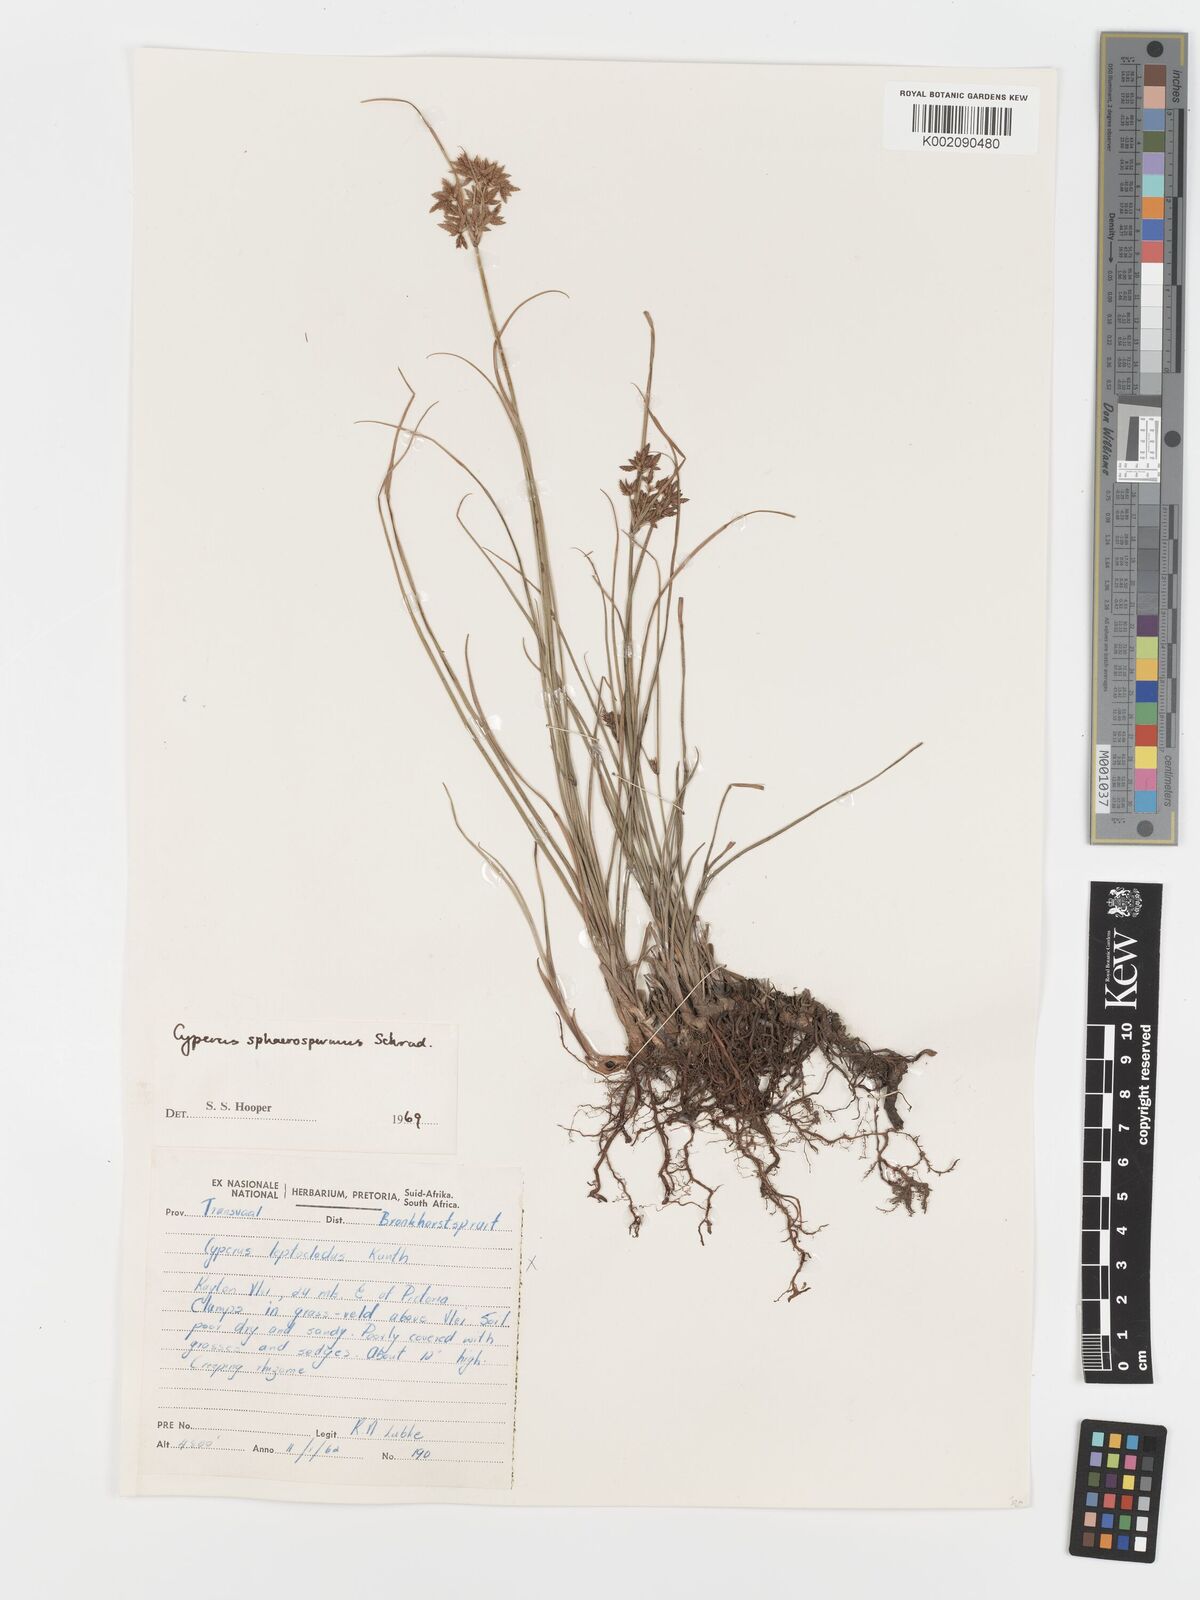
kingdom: Plantae
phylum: Tracheophyta
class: Liliopsida
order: Poales
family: Cyperaceae
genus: Cyperus
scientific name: Cyperus sphaerospermus
